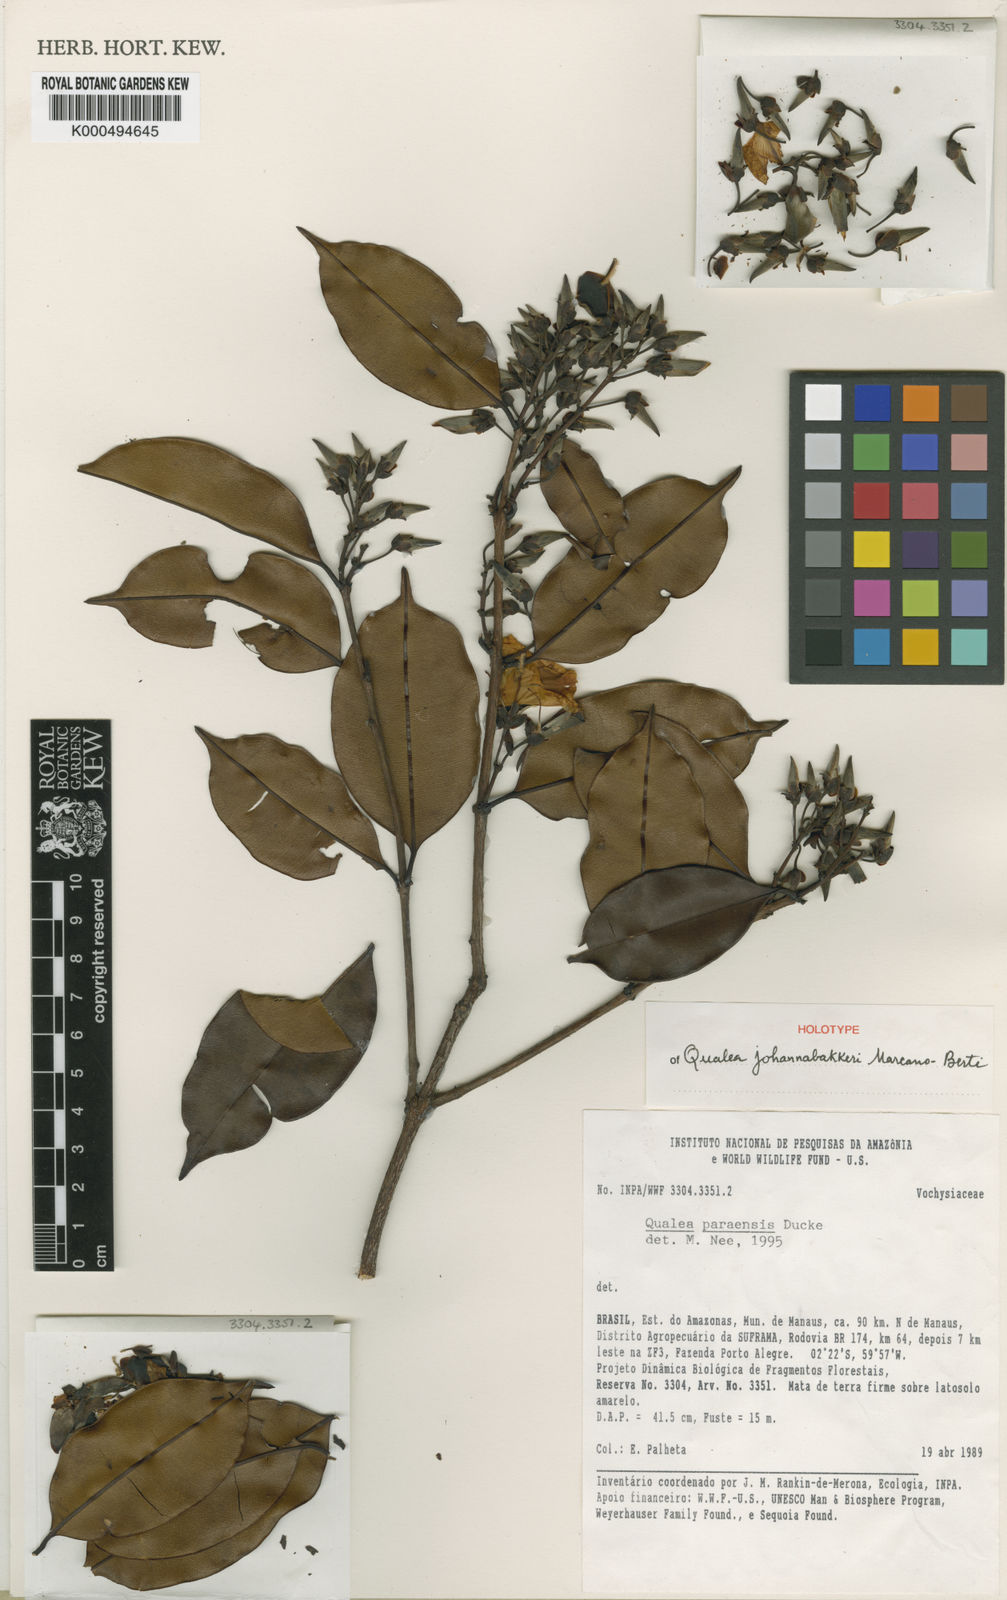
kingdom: Plantae
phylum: Tracheophyta
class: Magnoliopsida
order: Myrtales
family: Vochysiaceae
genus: Qualea
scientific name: Qualea johannabakkerae
